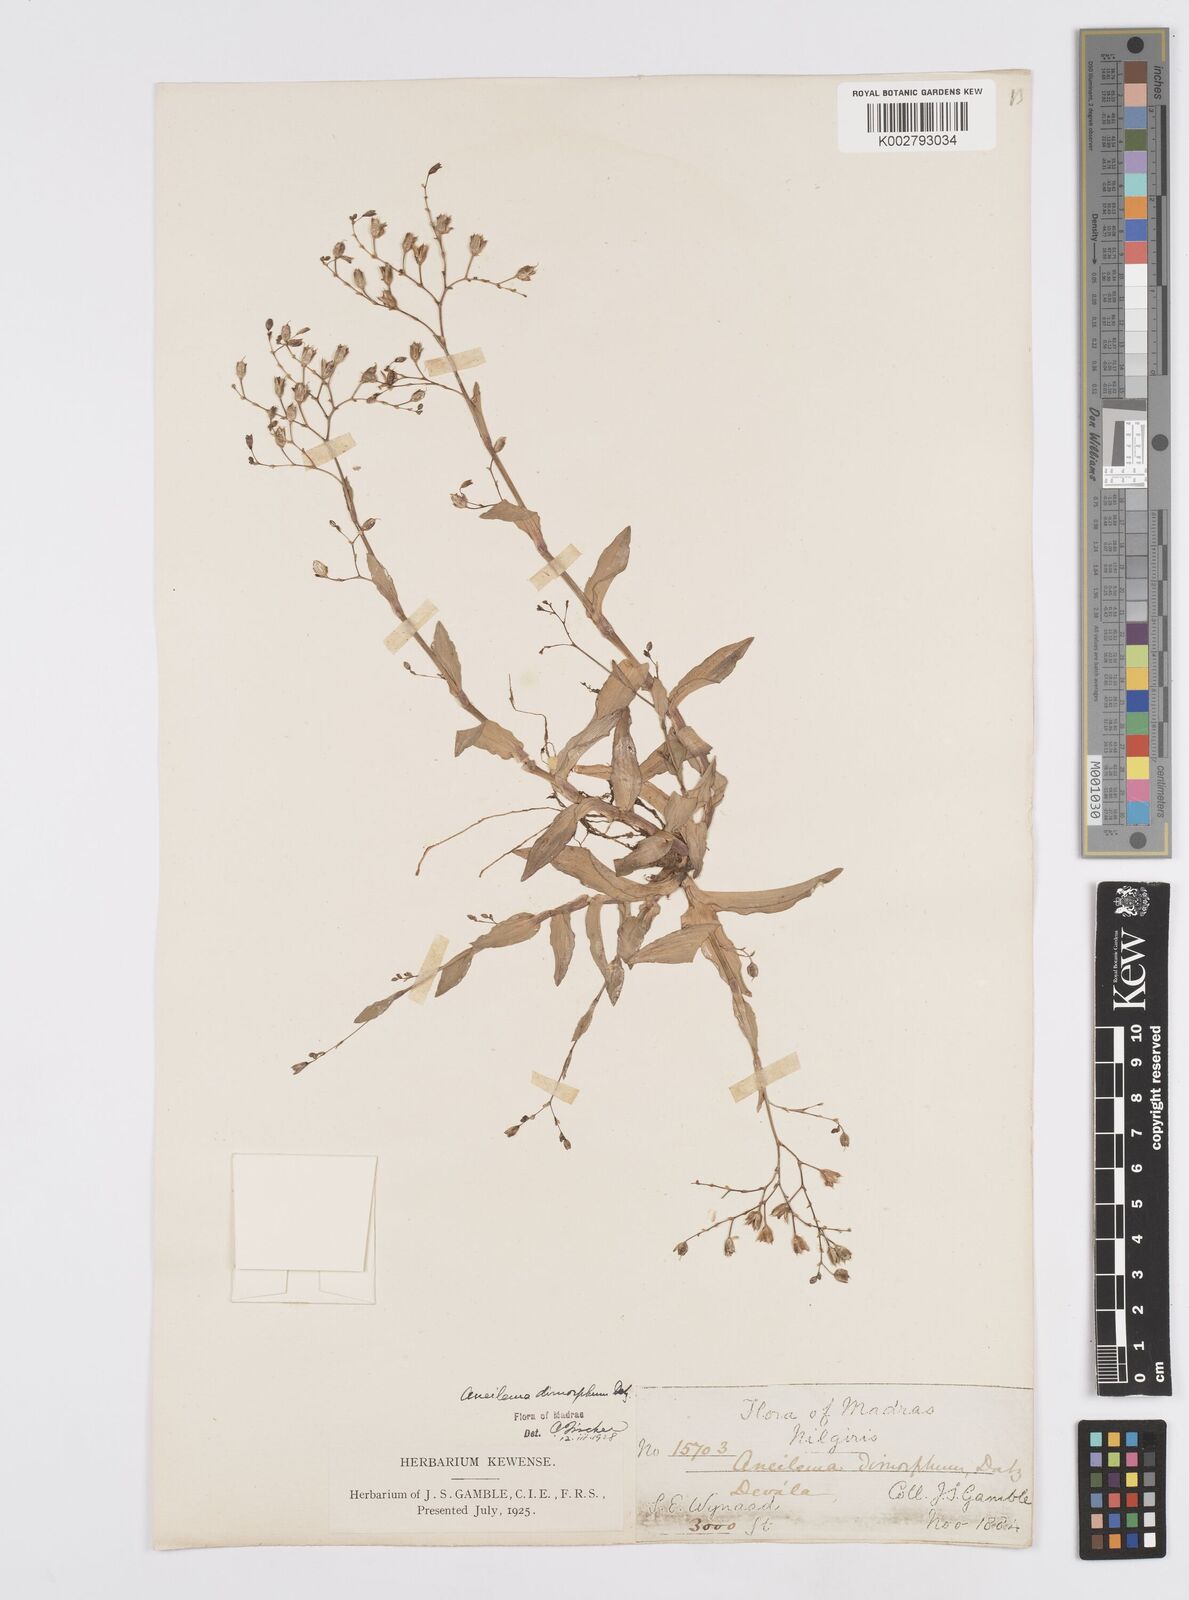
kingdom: Plantae
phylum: Tracheophyta
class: Liliopsida
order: Commelinales
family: Commelinaceae
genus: Murdannia
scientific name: Murdannia dimorpha
